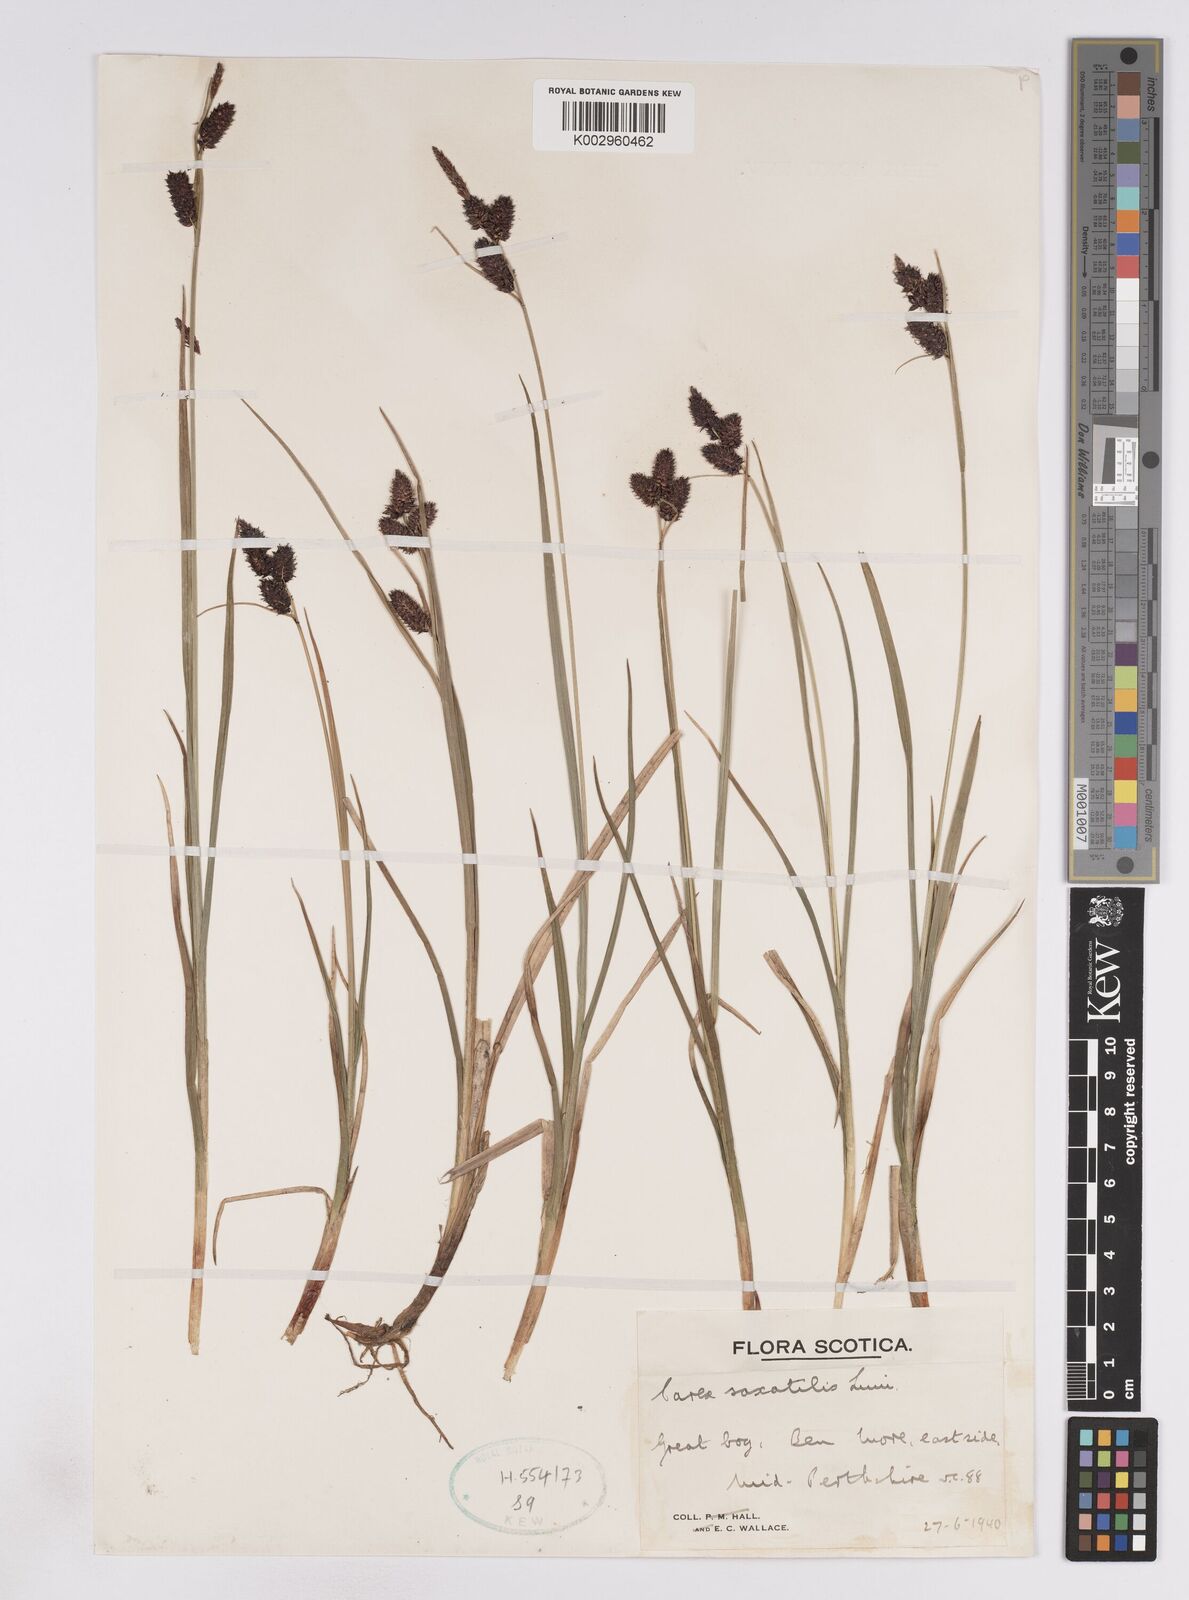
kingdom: Plantae
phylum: Tracheophyta
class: Liliopsida
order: Poales
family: Cyperaceae
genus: Carex
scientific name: Carex saxatilis
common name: Russet sedge
